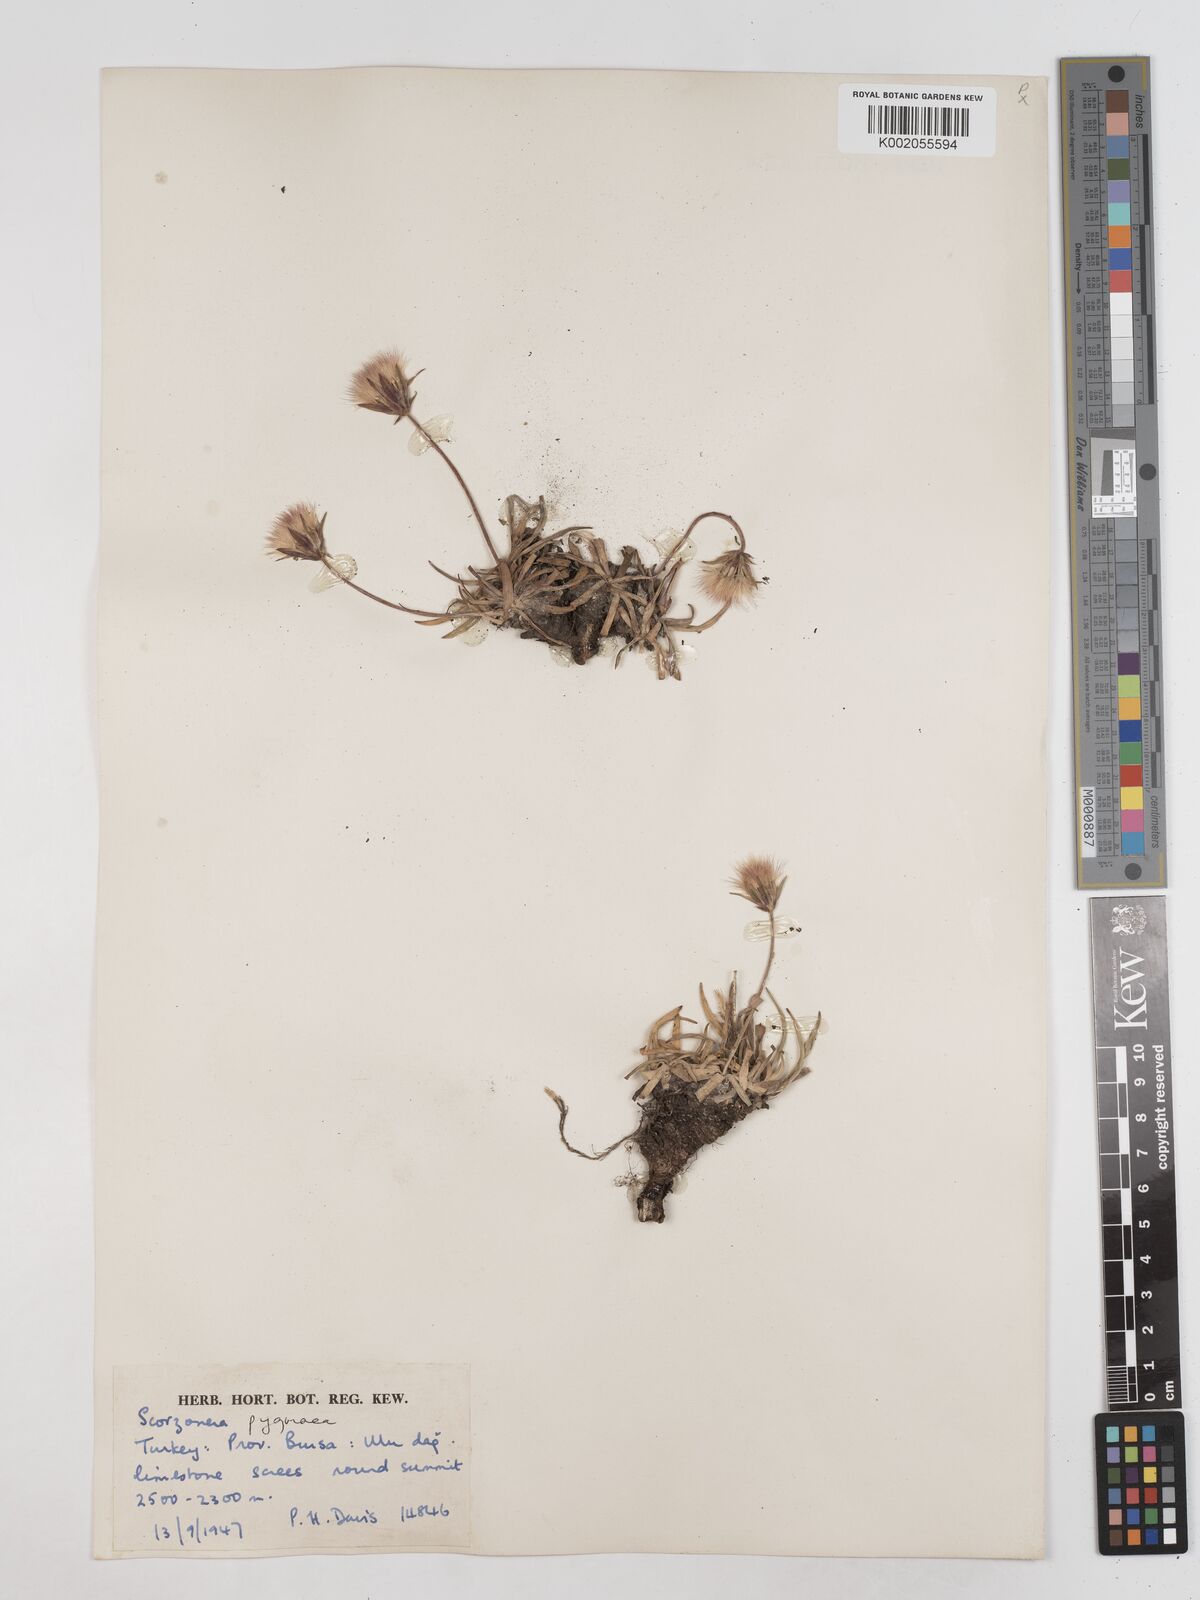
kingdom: Plantae
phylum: Tracheophyta
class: Magnoliopsida
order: Asterales
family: Asteraceae
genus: Scorzonera
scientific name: Scorzonera
